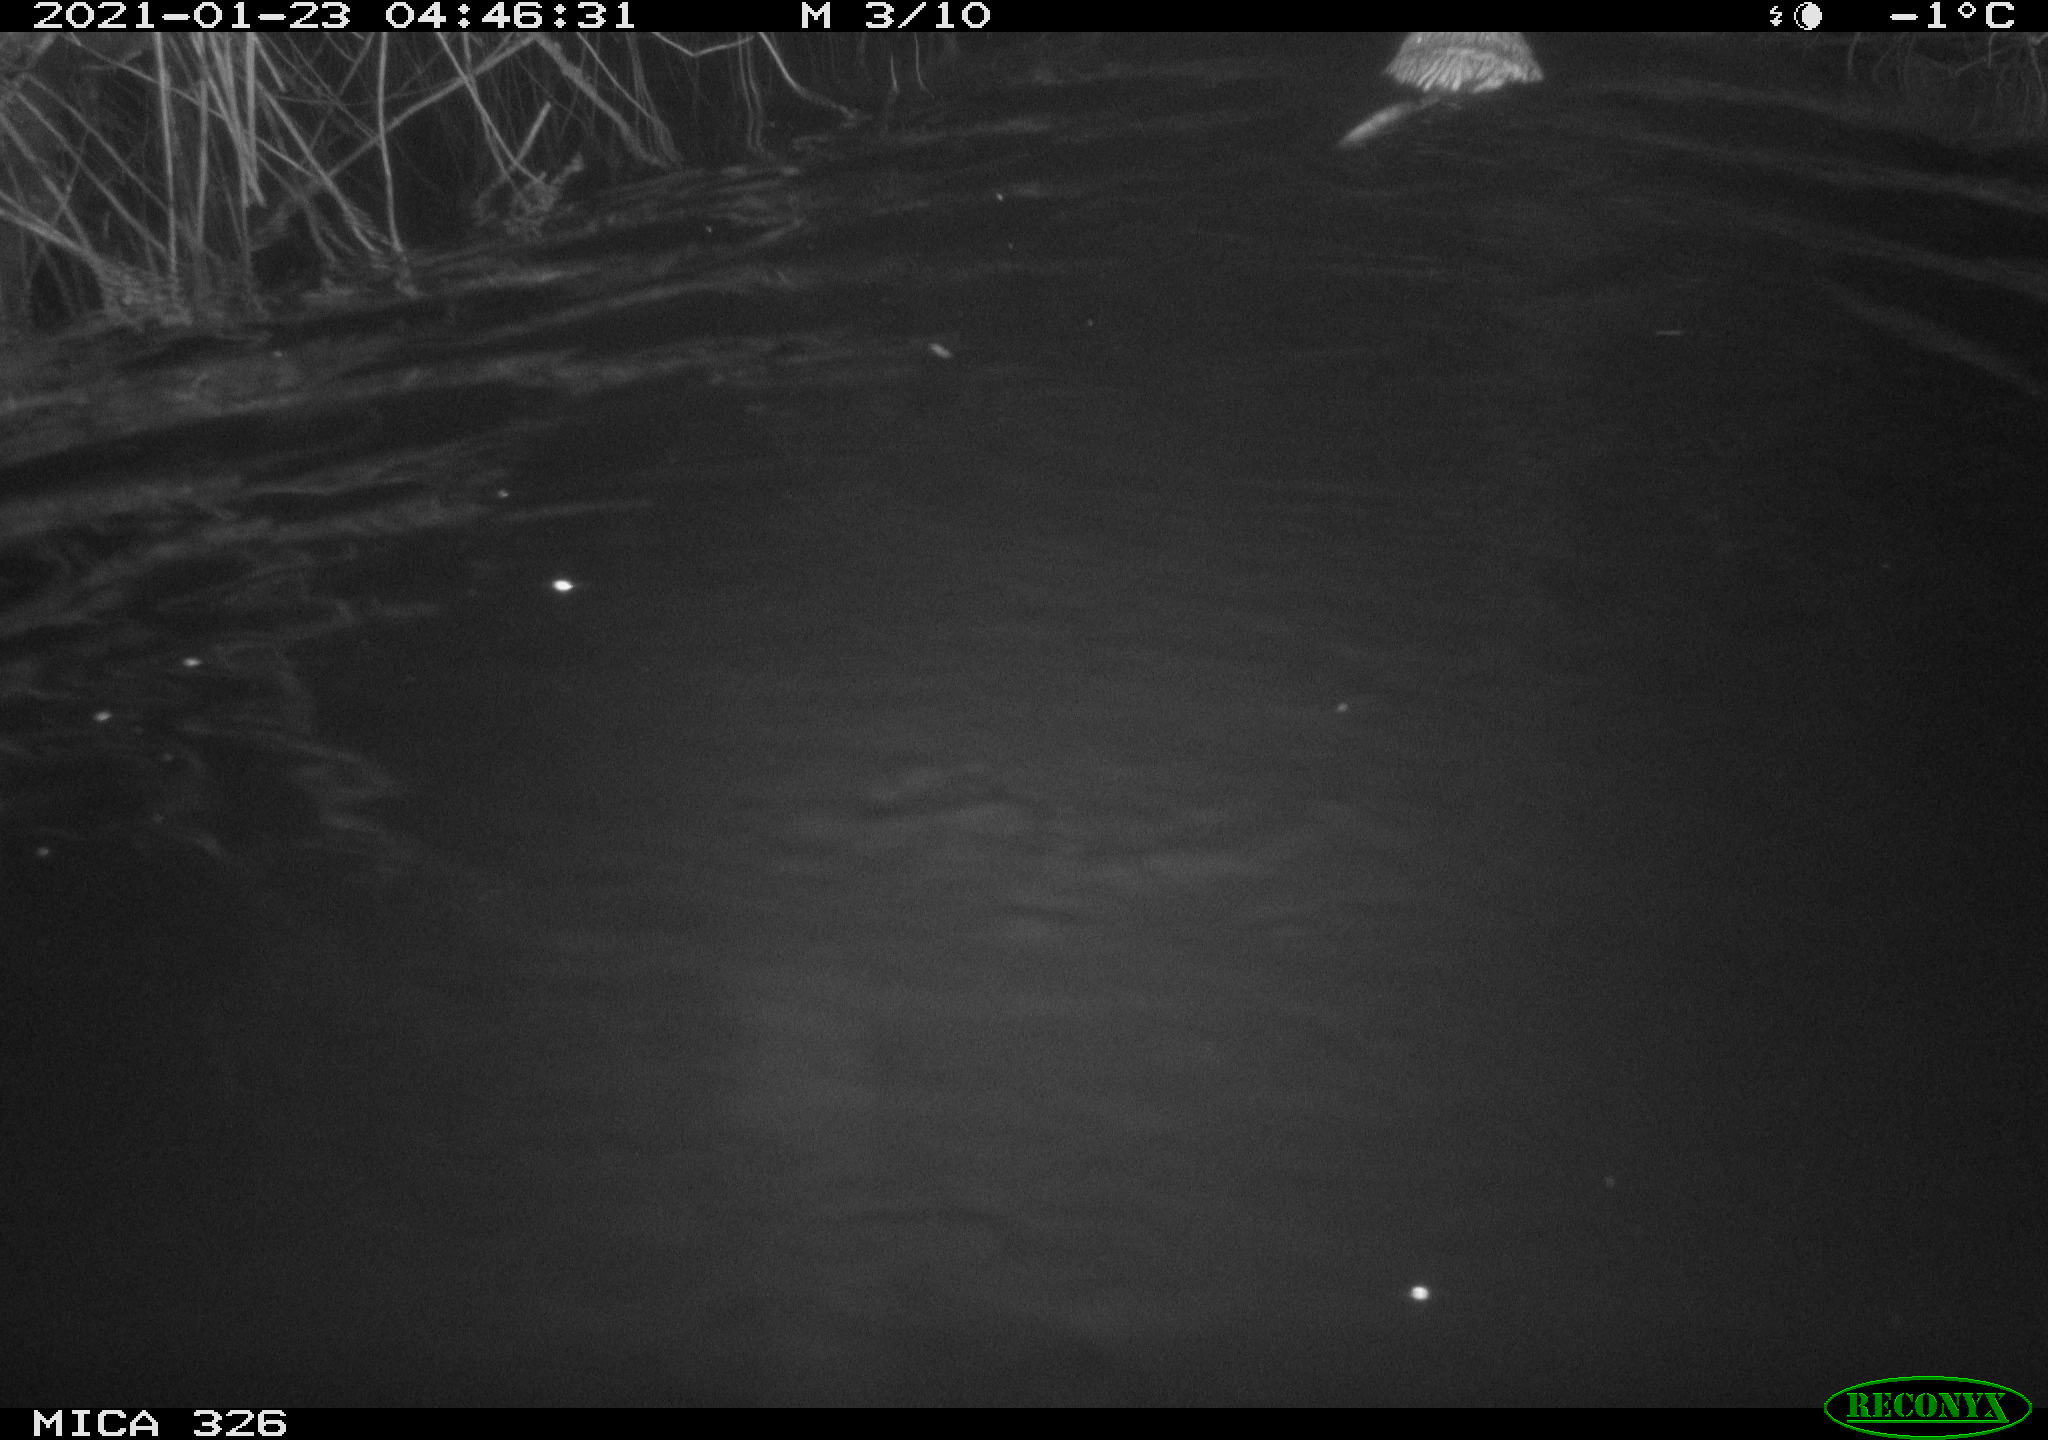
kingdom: Animalia
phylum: Chordata
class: Mammalia
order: Rodentia
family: Cricetidae
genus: Ondatra
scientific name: Ondatra zibethicus
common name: Muskrat
